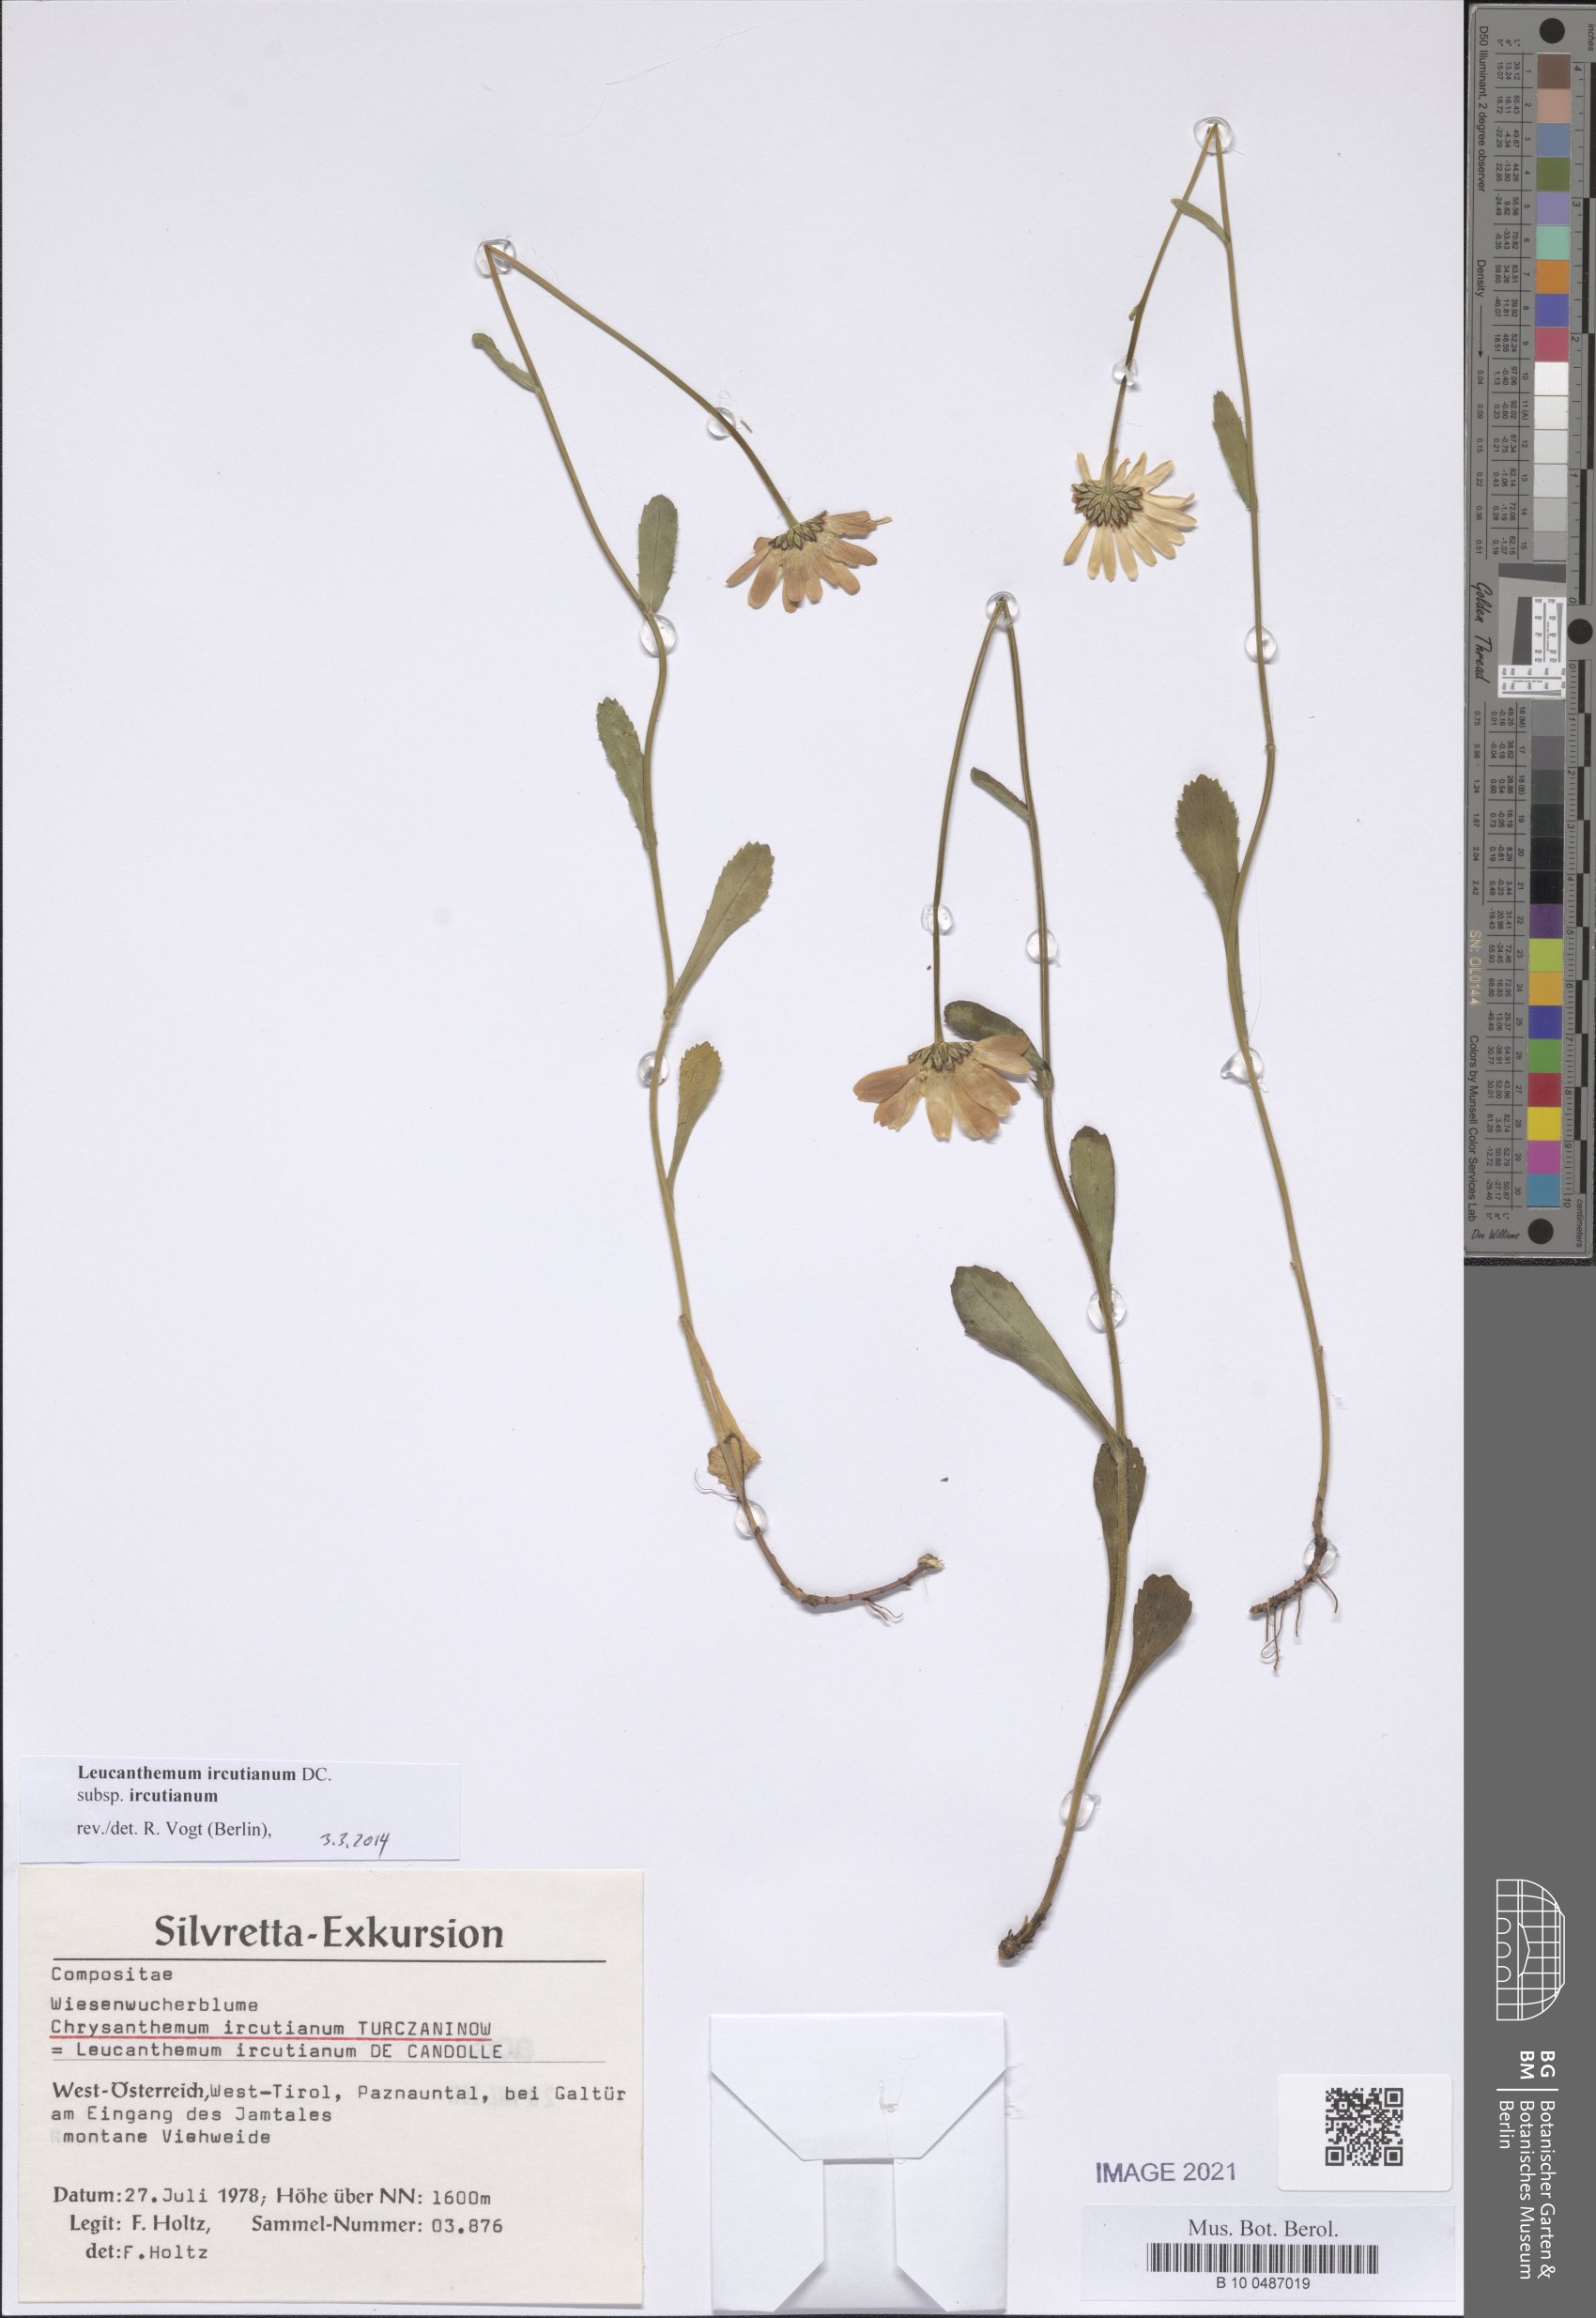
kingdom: Plantae
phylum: Tracheophyta
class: Magnoliopsida
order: Asterales
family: Asteraceae
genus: Leucanthemum
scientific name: Leucanthemum ircutianum
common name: Daisy
